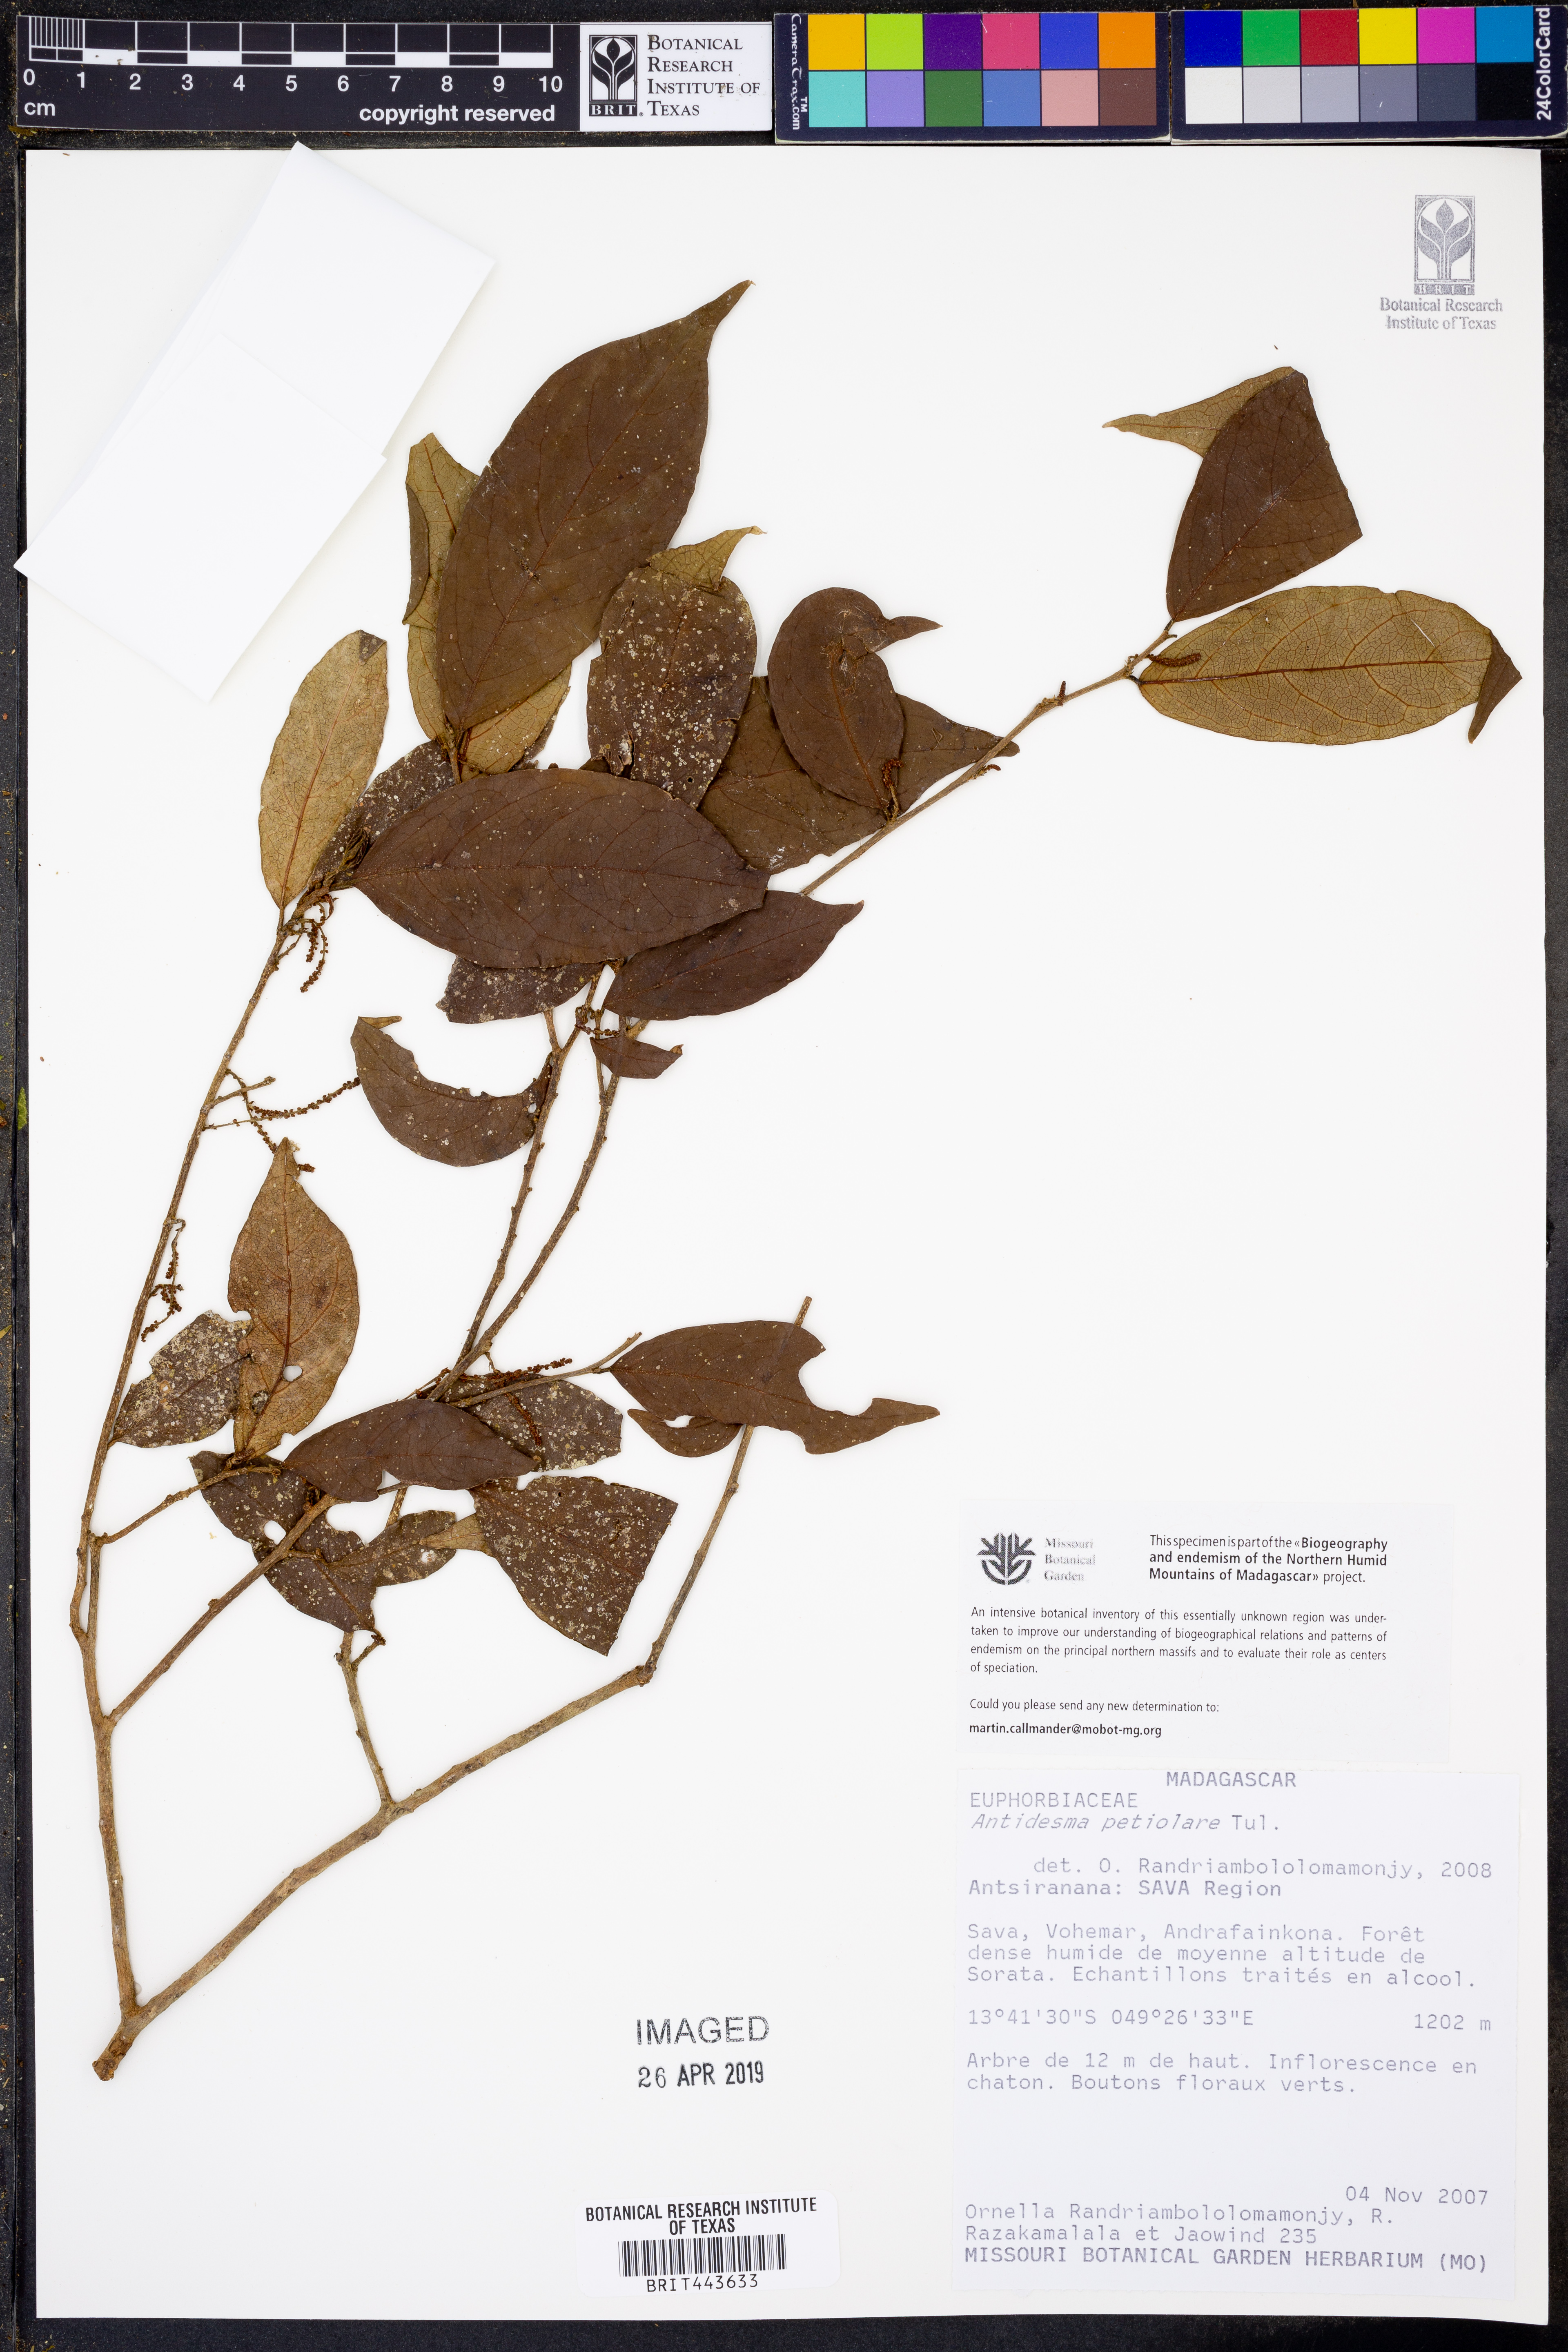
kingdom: Plantae
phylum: Tracheophyta
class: Magnoliopsida
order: Malpighiales
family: Phyllanthaceae
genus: Antidesma
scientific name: Antidesma madagascariense
